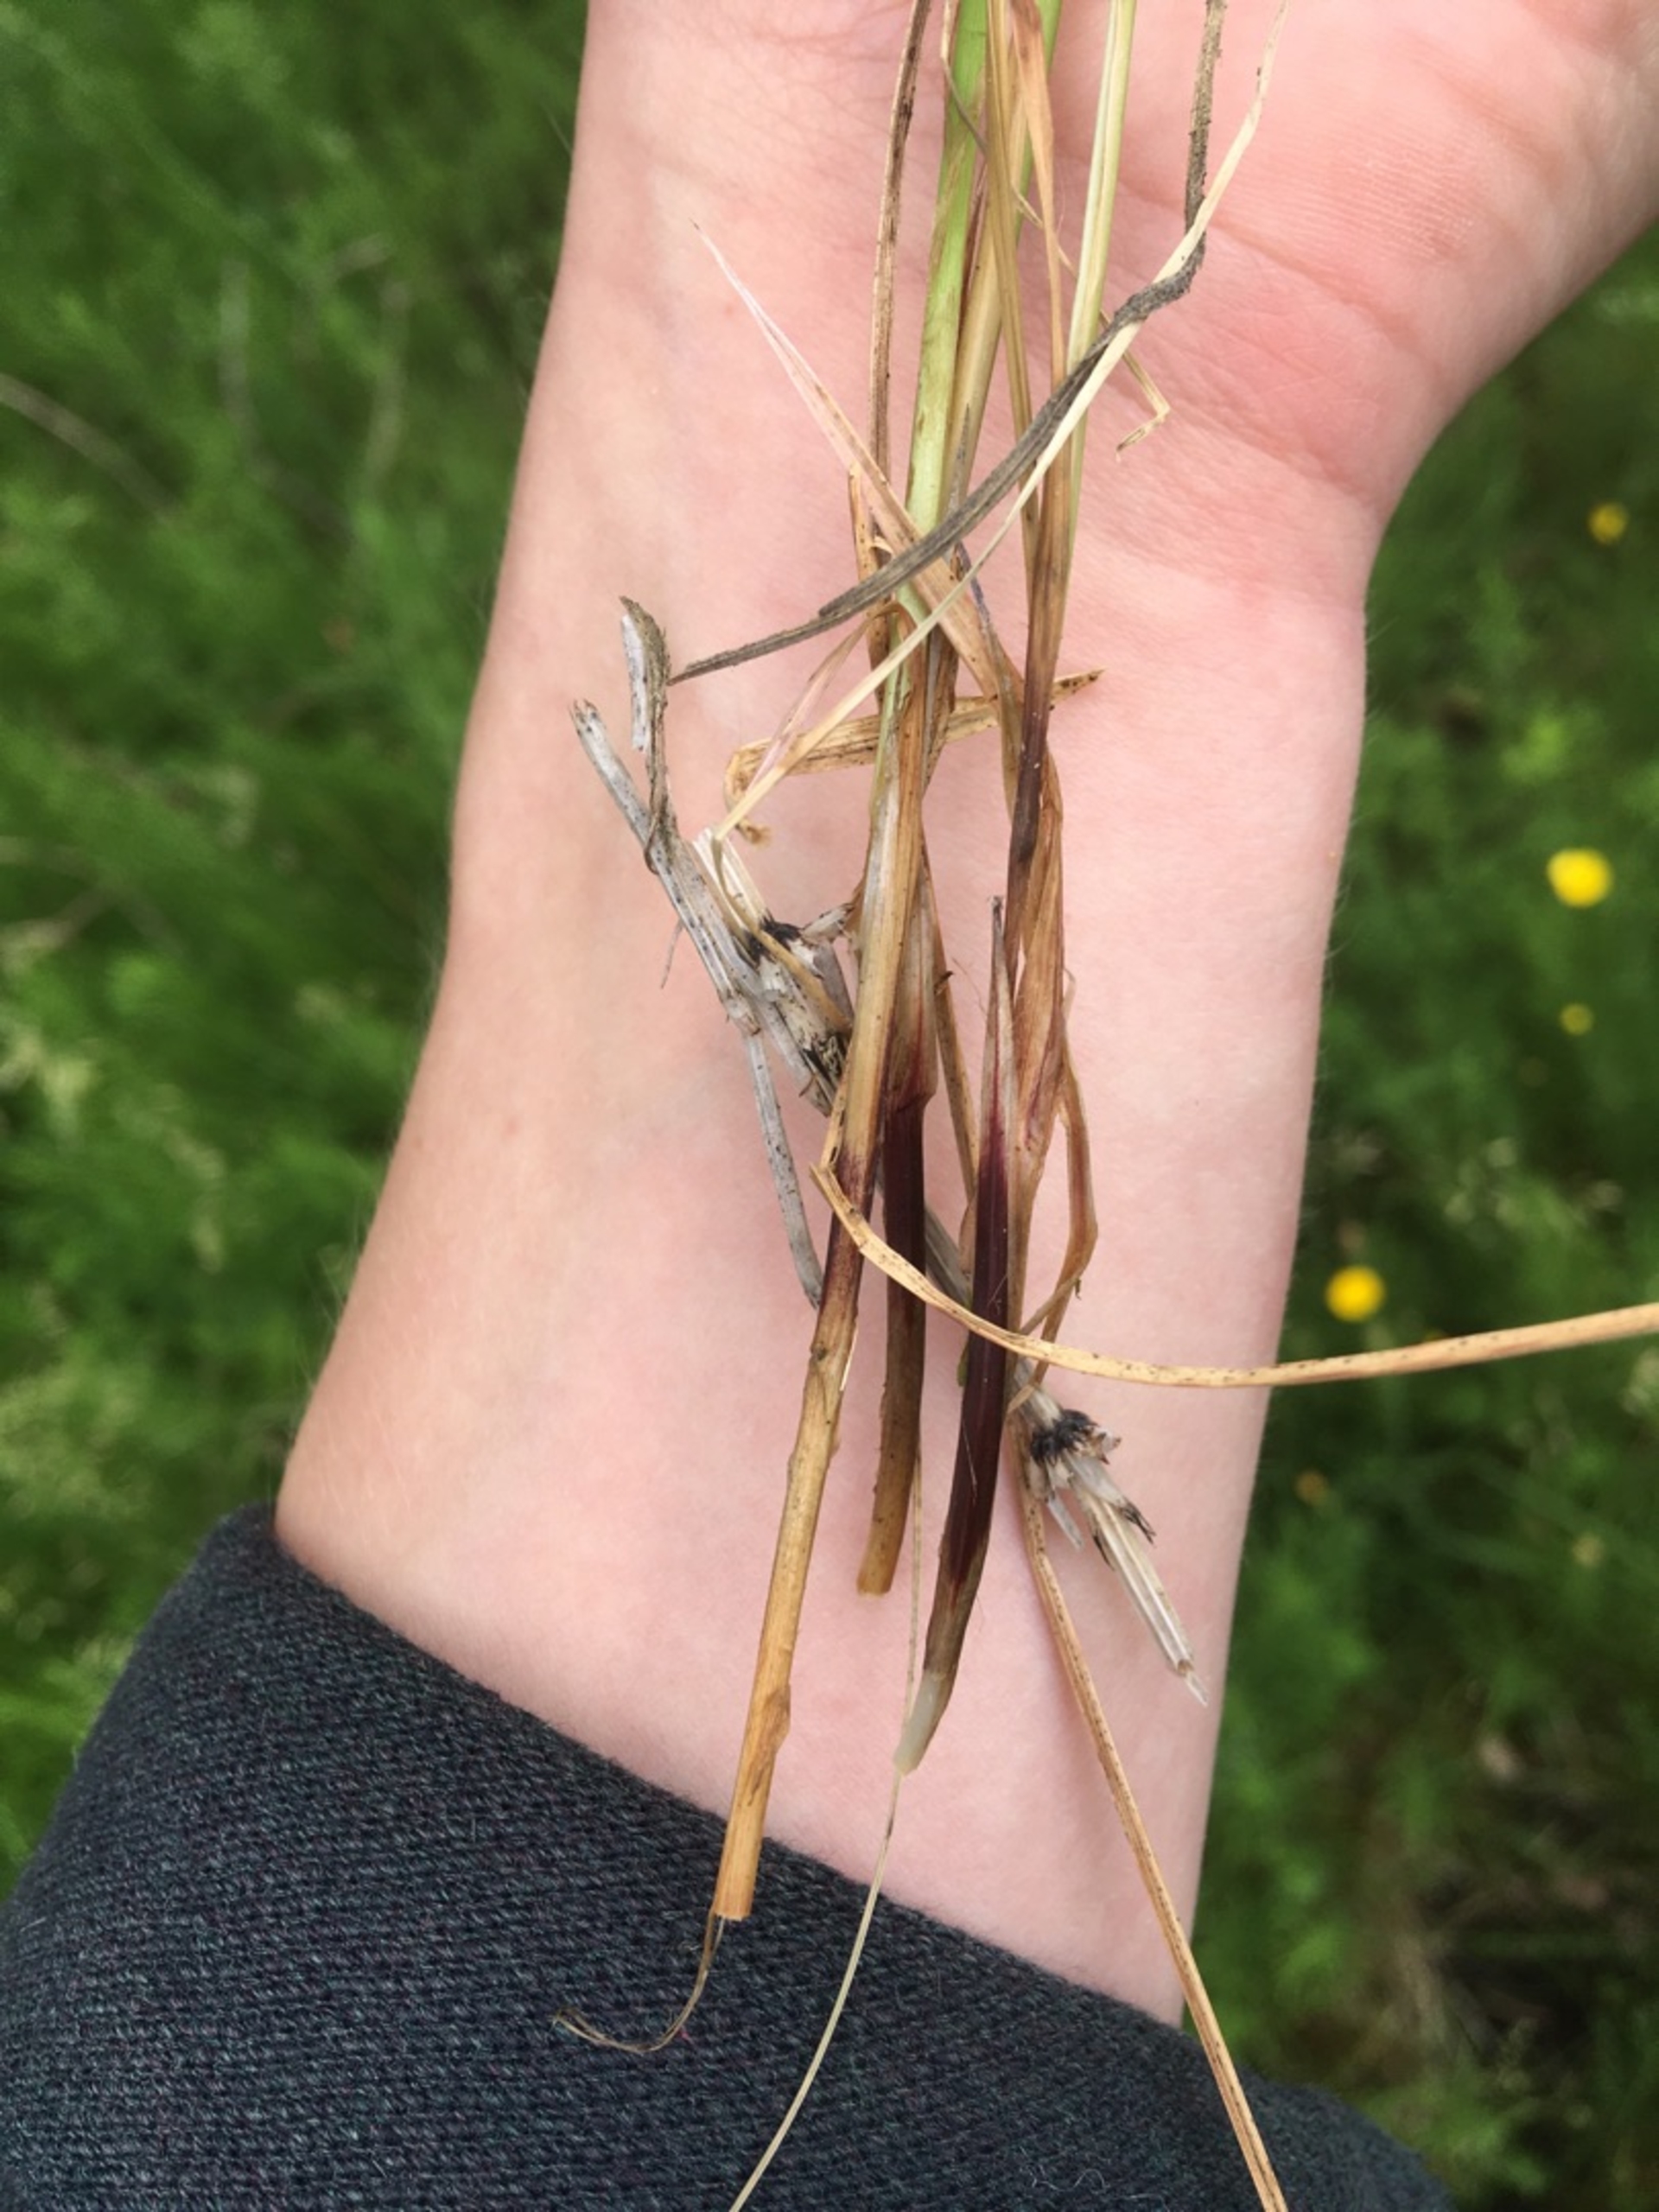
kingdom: Plantae
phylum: Tracheophyta
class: Liliopsida
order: Poales
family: Cyperaceae
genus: Carex
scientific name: Carex cespitosa
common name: Tue-star
